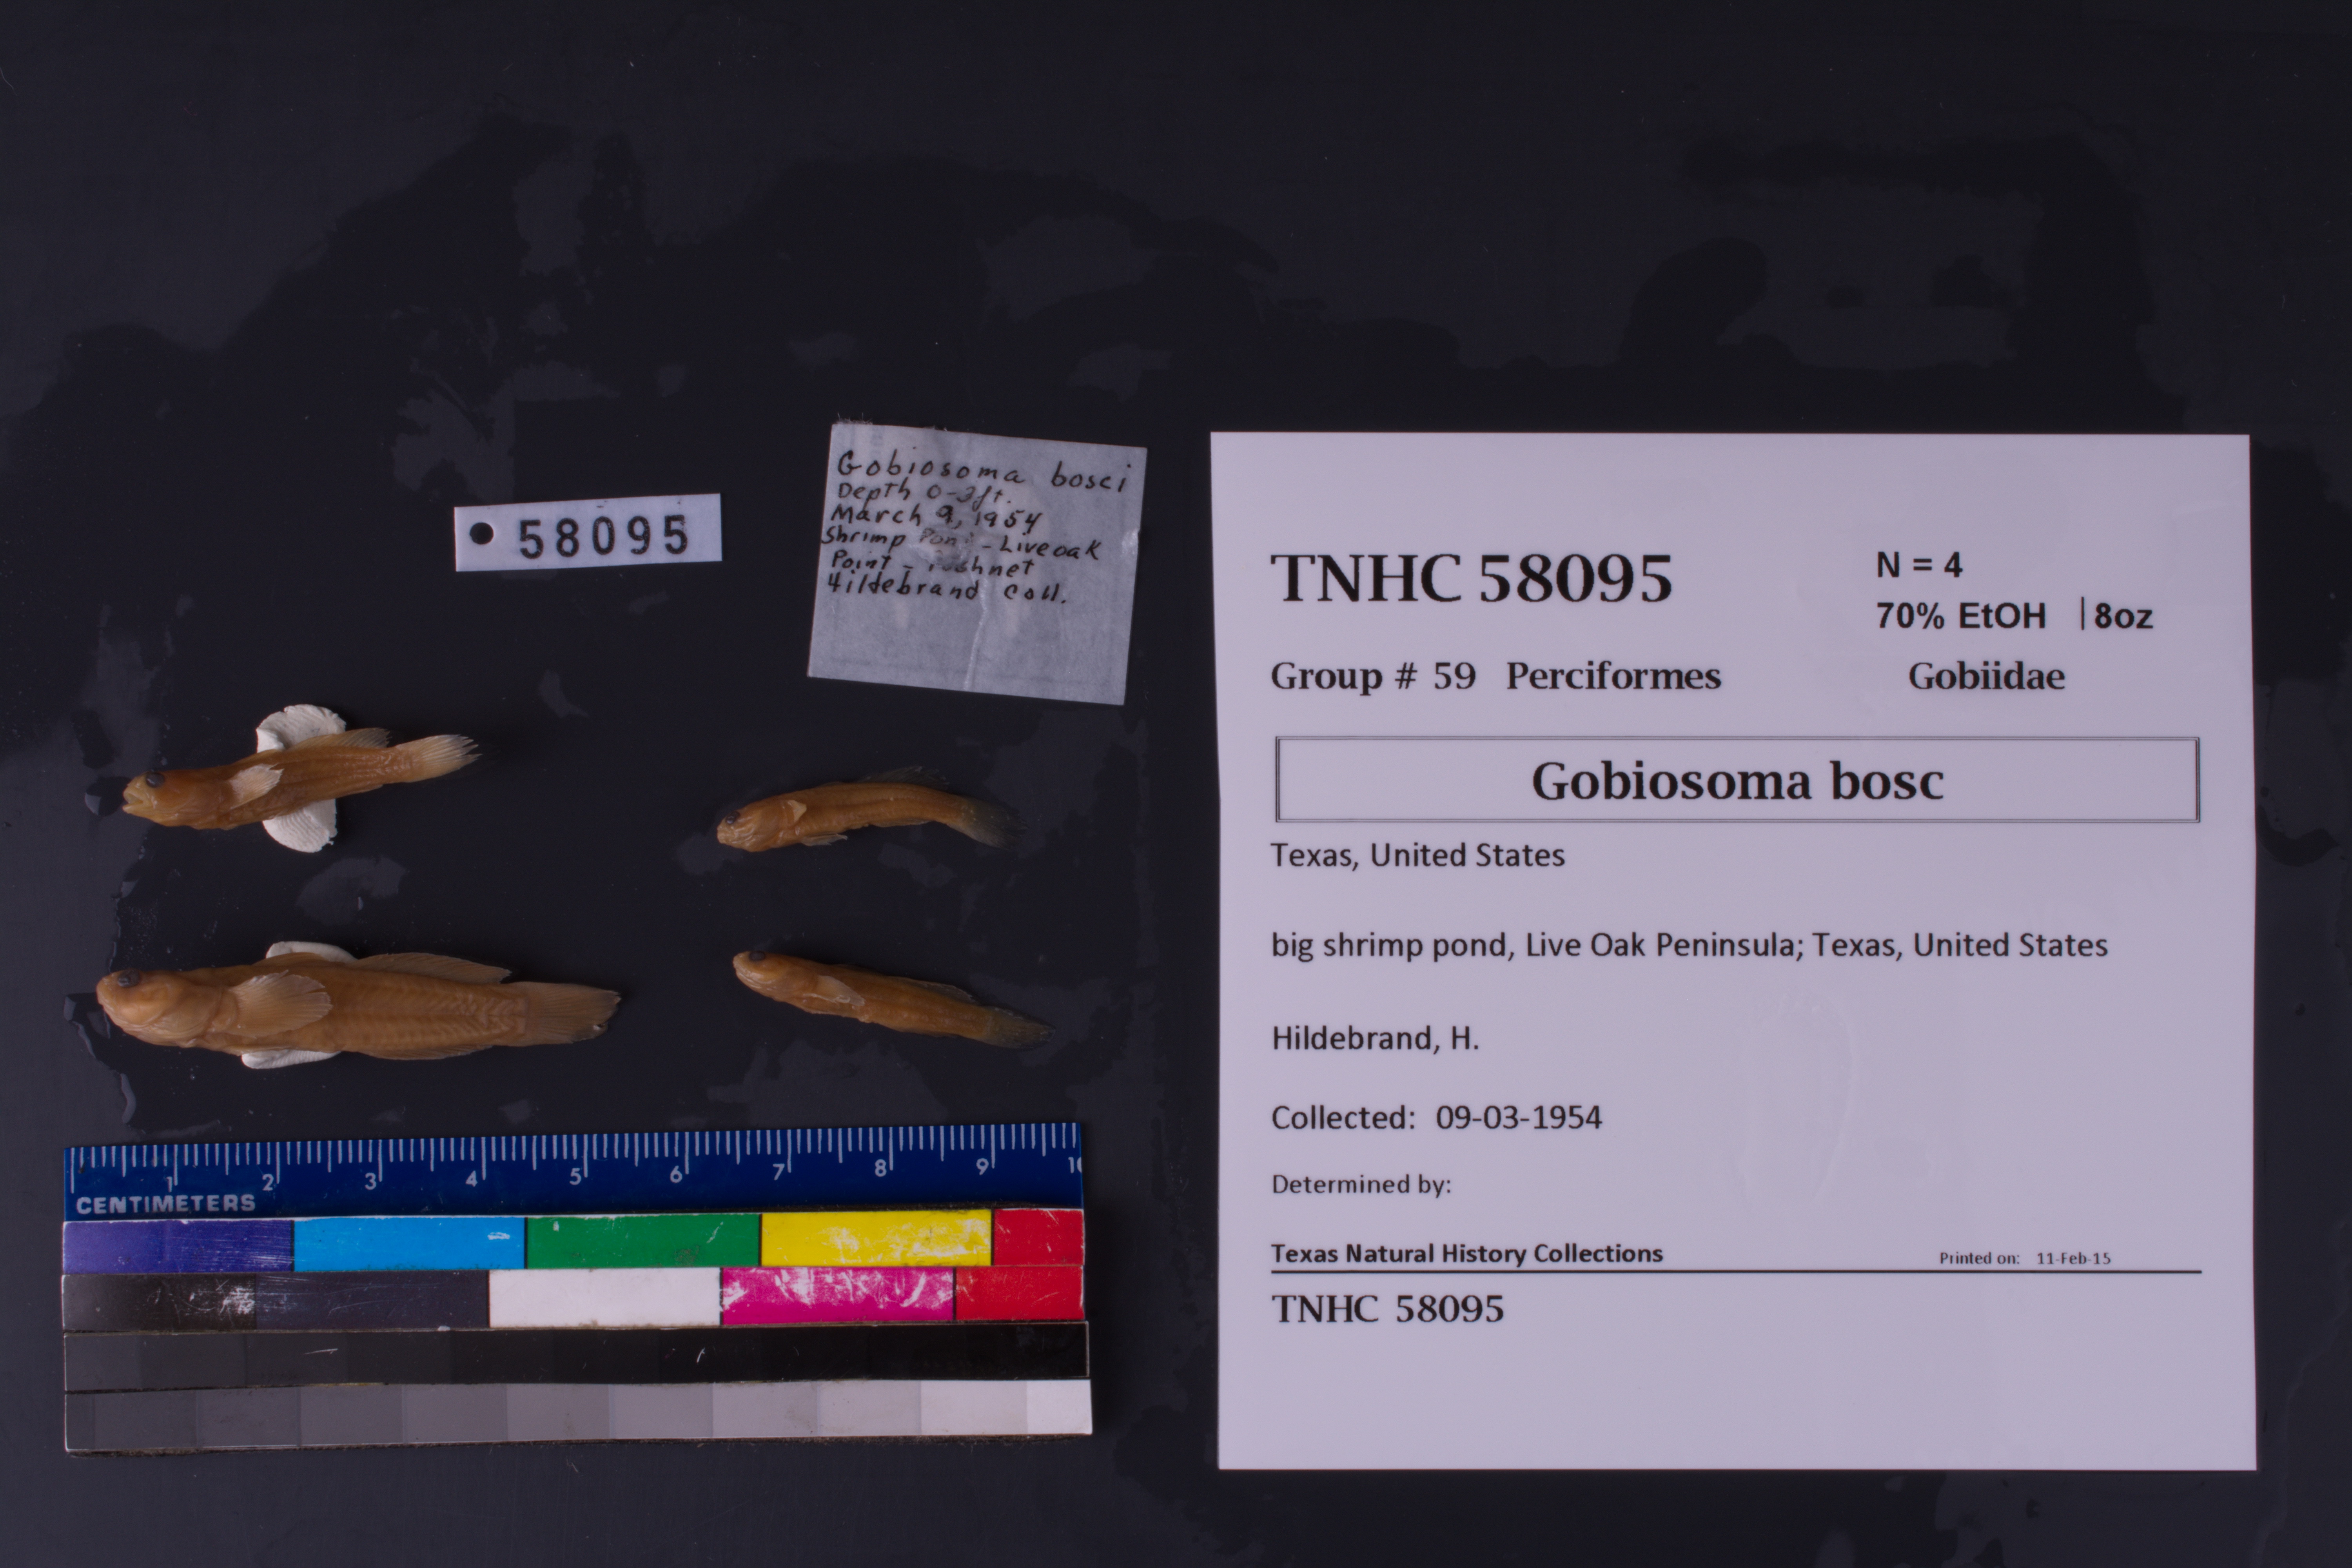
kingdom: Animalia
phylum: Chordata
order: Perciformes
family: Gobiidae
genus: Gobiosoma
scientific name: Gobiosoma bosc
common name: Naked goby
